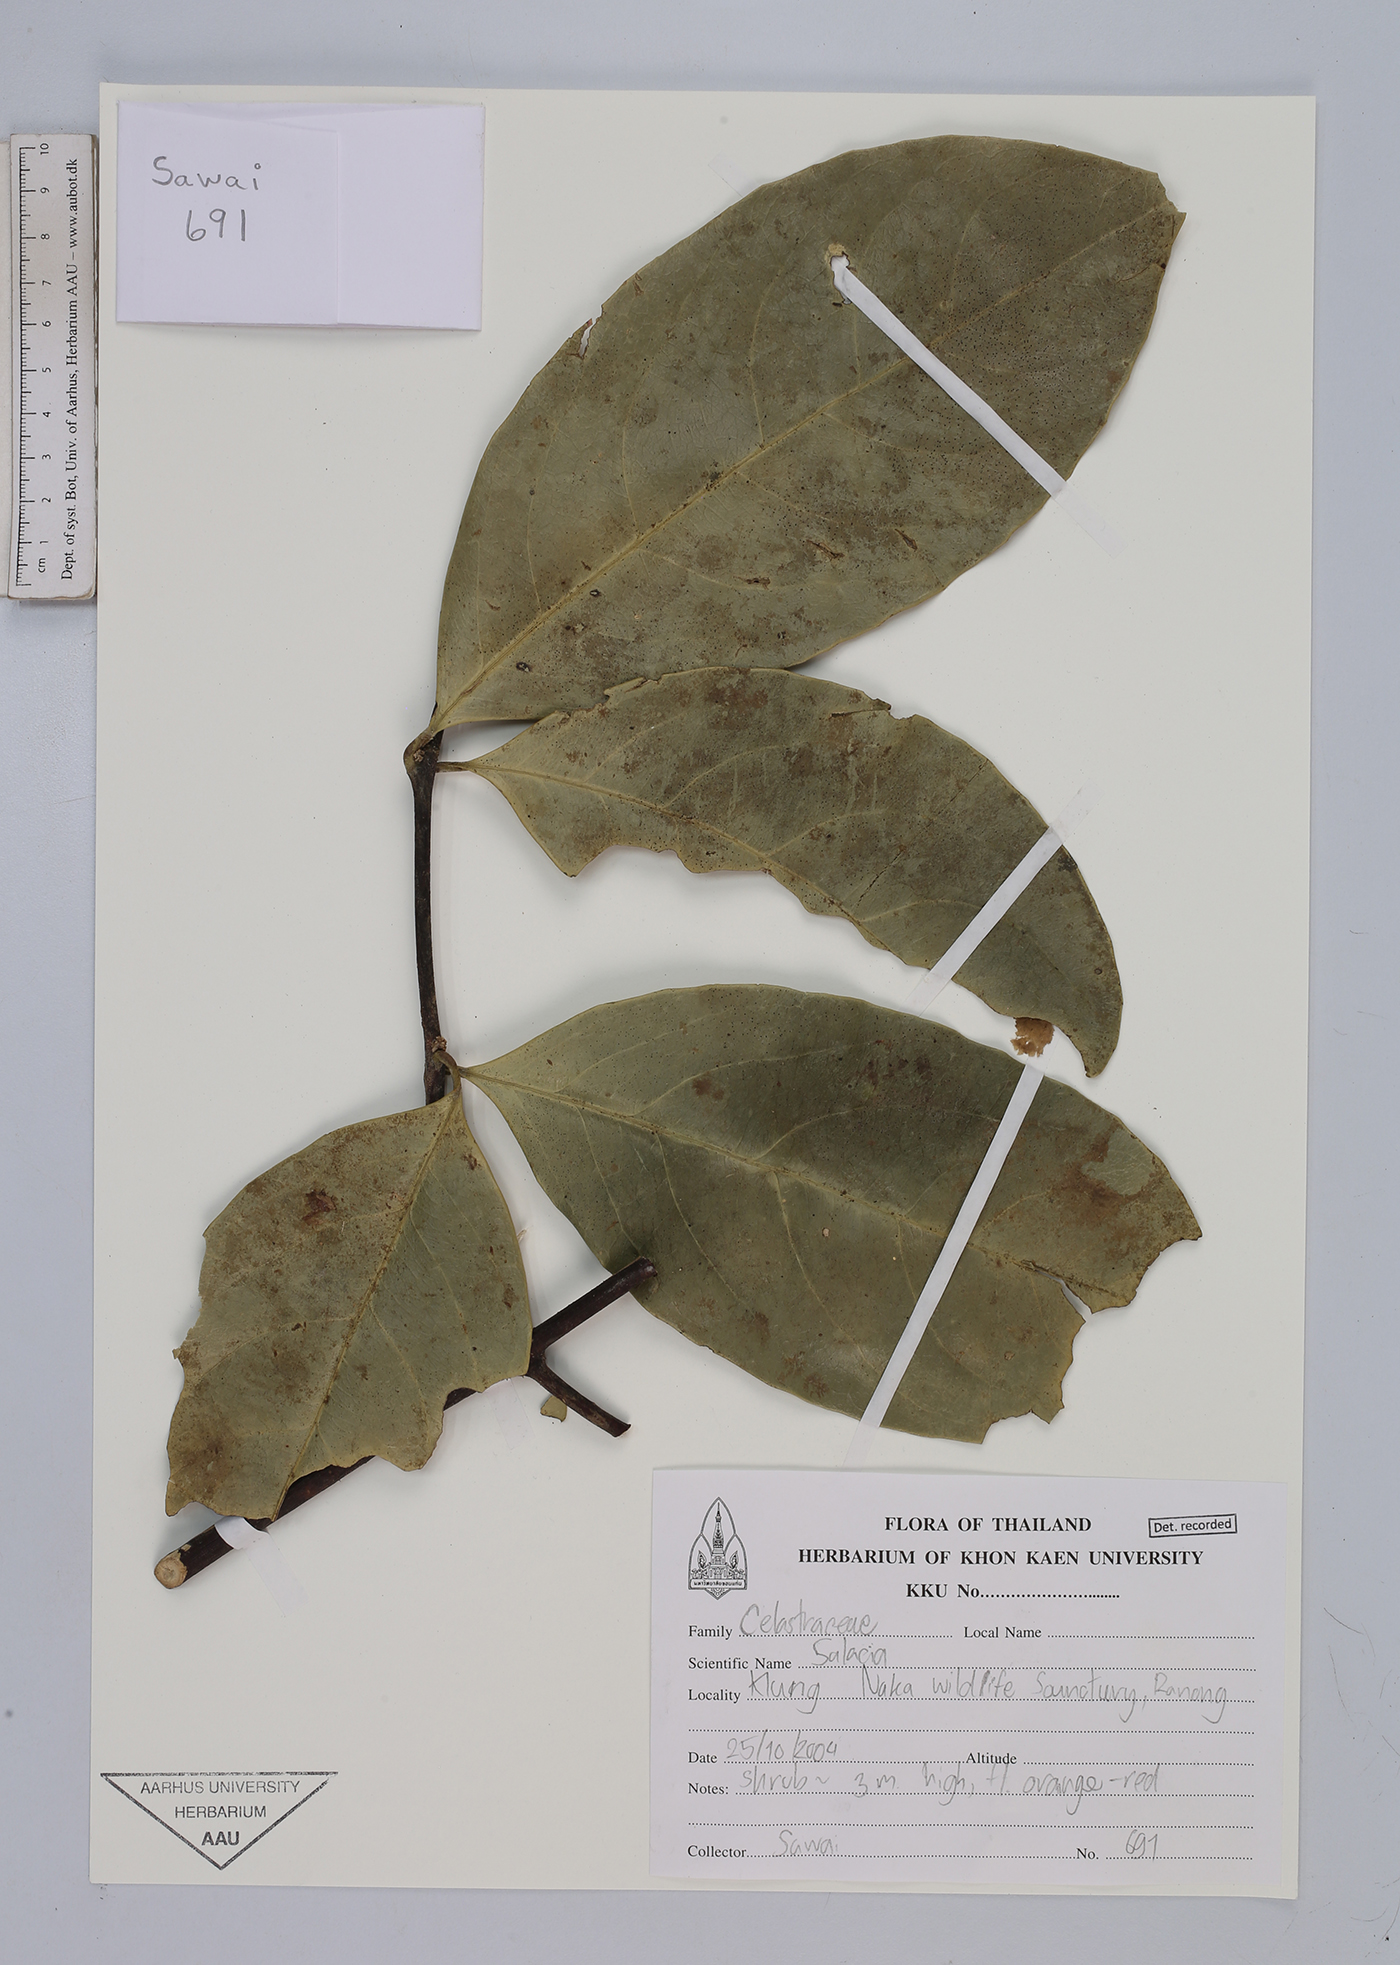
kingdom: Plantae
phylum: Tracheophyta
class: Magnoliopsida
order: Celastrales
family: Celastraceae
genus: Salacia
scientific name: Salacia
